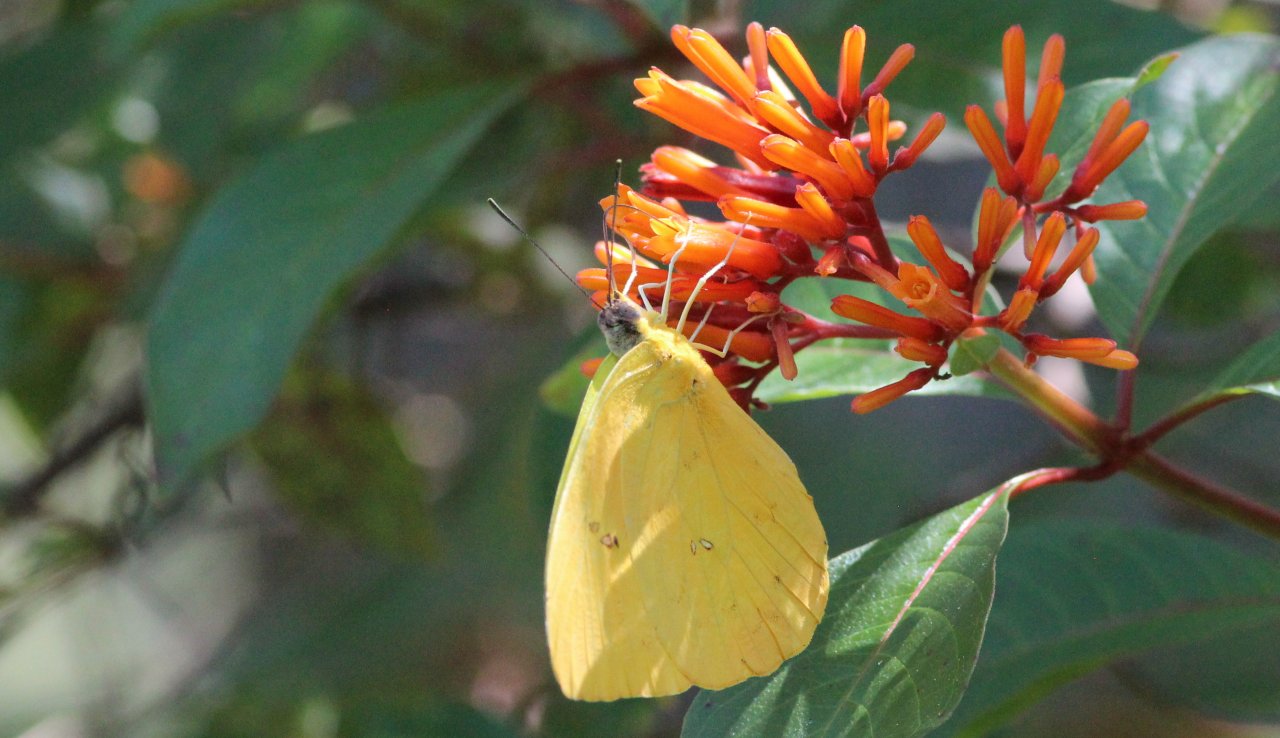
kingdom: Animalia
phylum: Arthropoda
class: Insecta
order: Lepidoptera
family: Pieridae
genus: Phoebis
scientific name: Phoebis philea
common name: Orange-barred Sulphur
